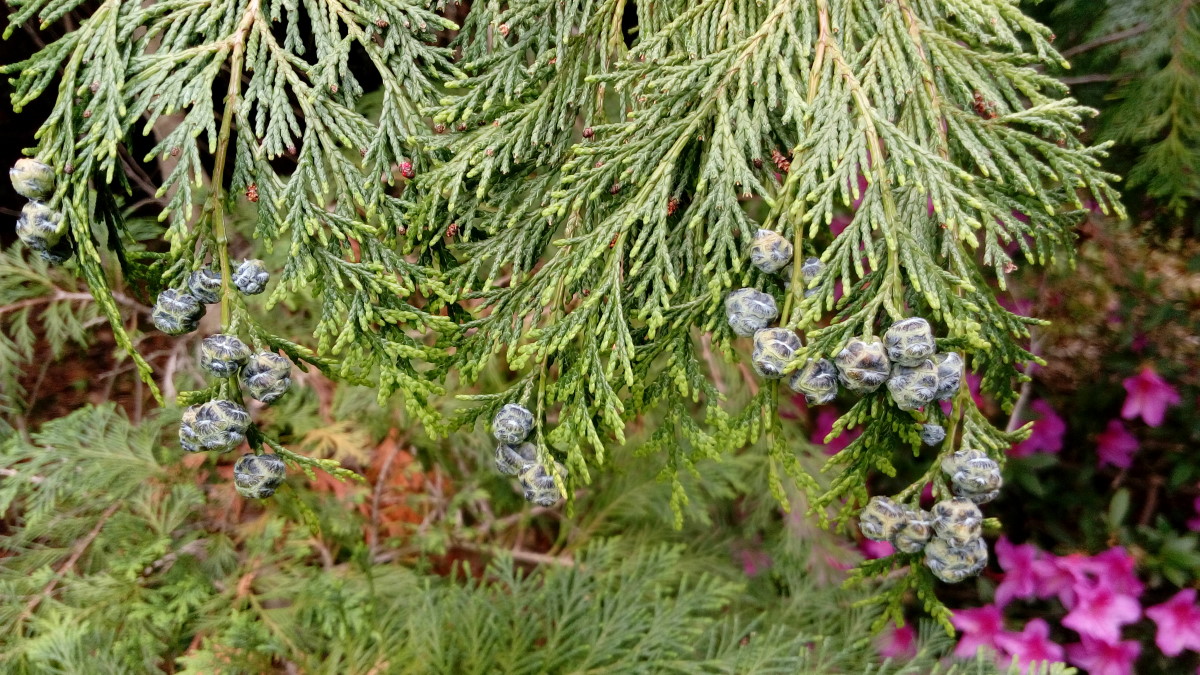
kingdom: Plantae
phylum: Tracheophyta
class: Pinopsida
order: Pinales
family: Cupressaceae
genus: Chamaecyparis
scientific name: Chamaecyparis lawsoniana
